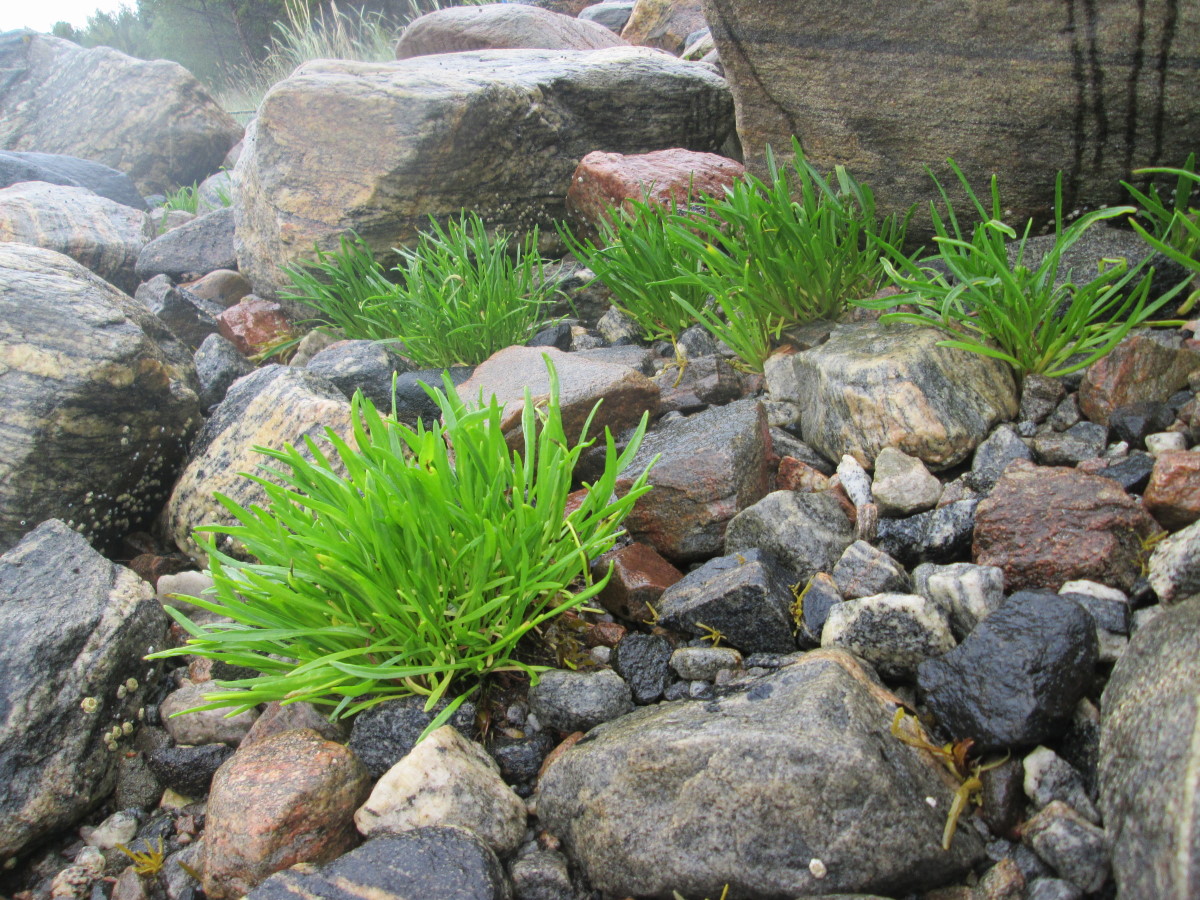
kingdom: Plantae
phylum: Tracheophyta
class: Magnoliopsida
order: Asterales
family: Asteraceae
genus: Tripolium
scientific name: Tripolium pannonicum
